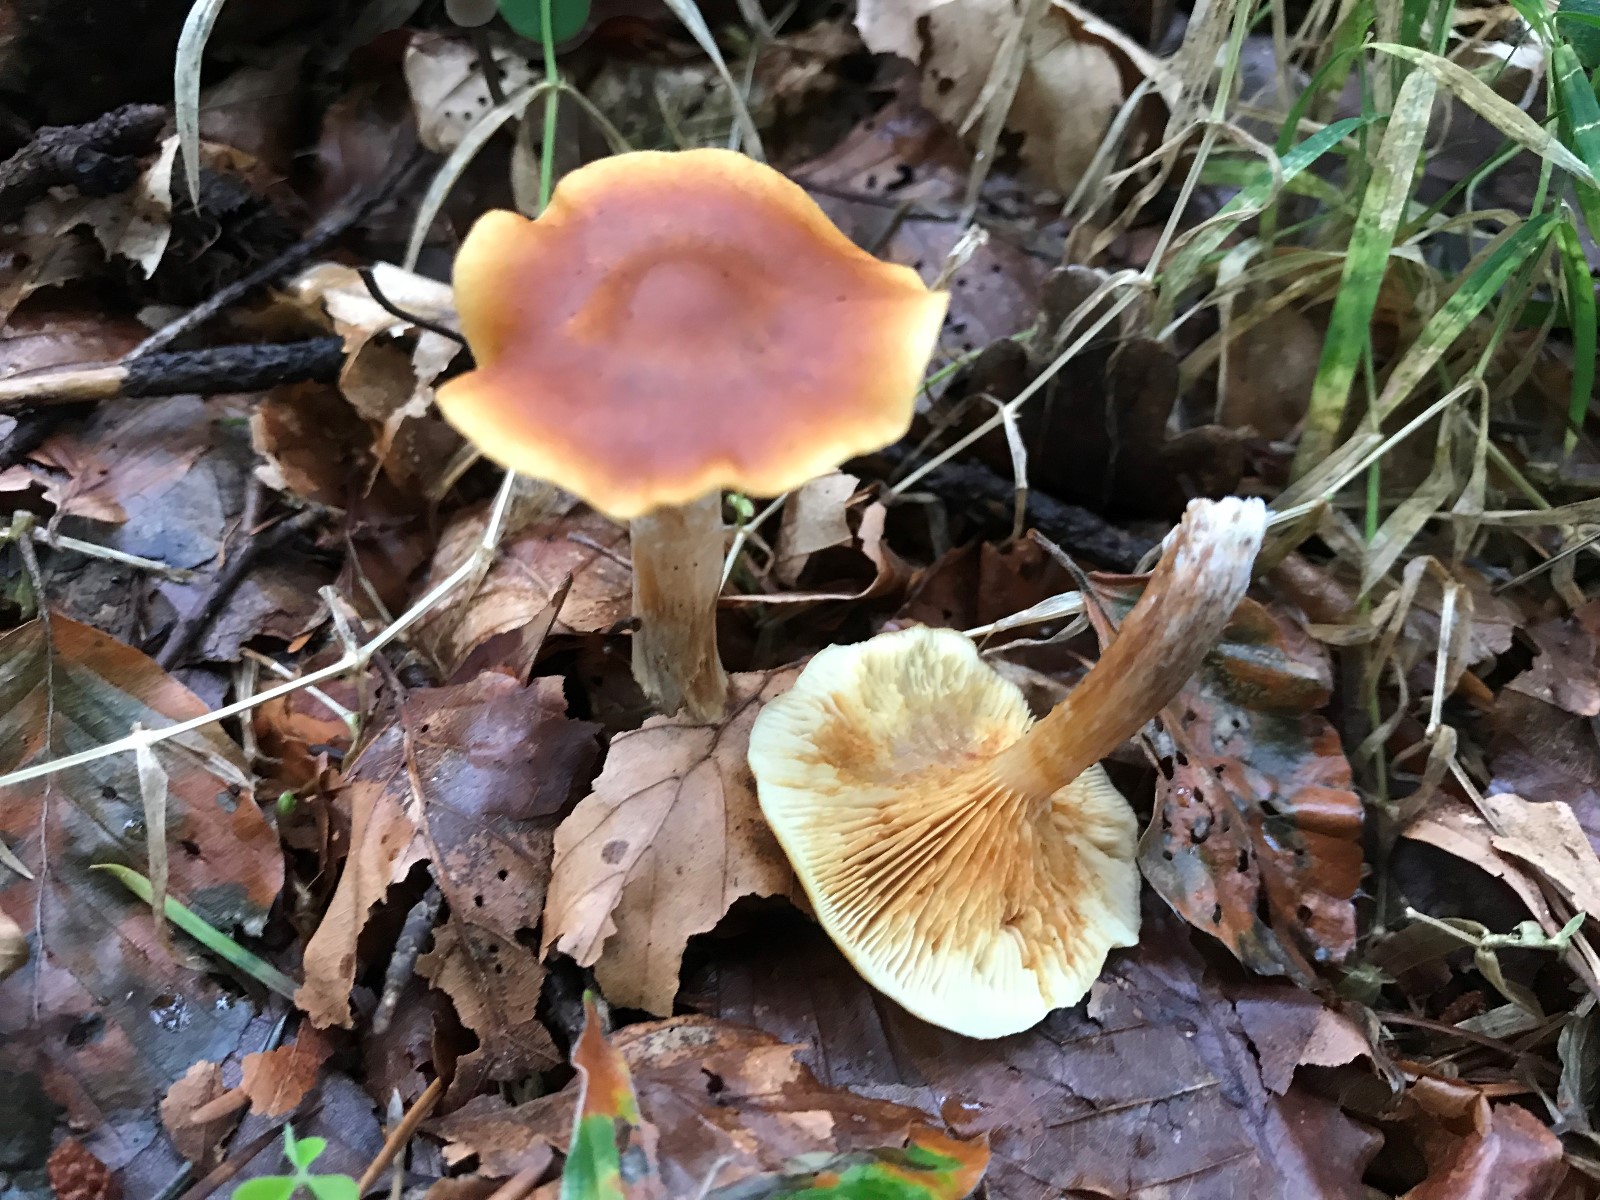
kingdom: Fungi
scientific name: Fungi
